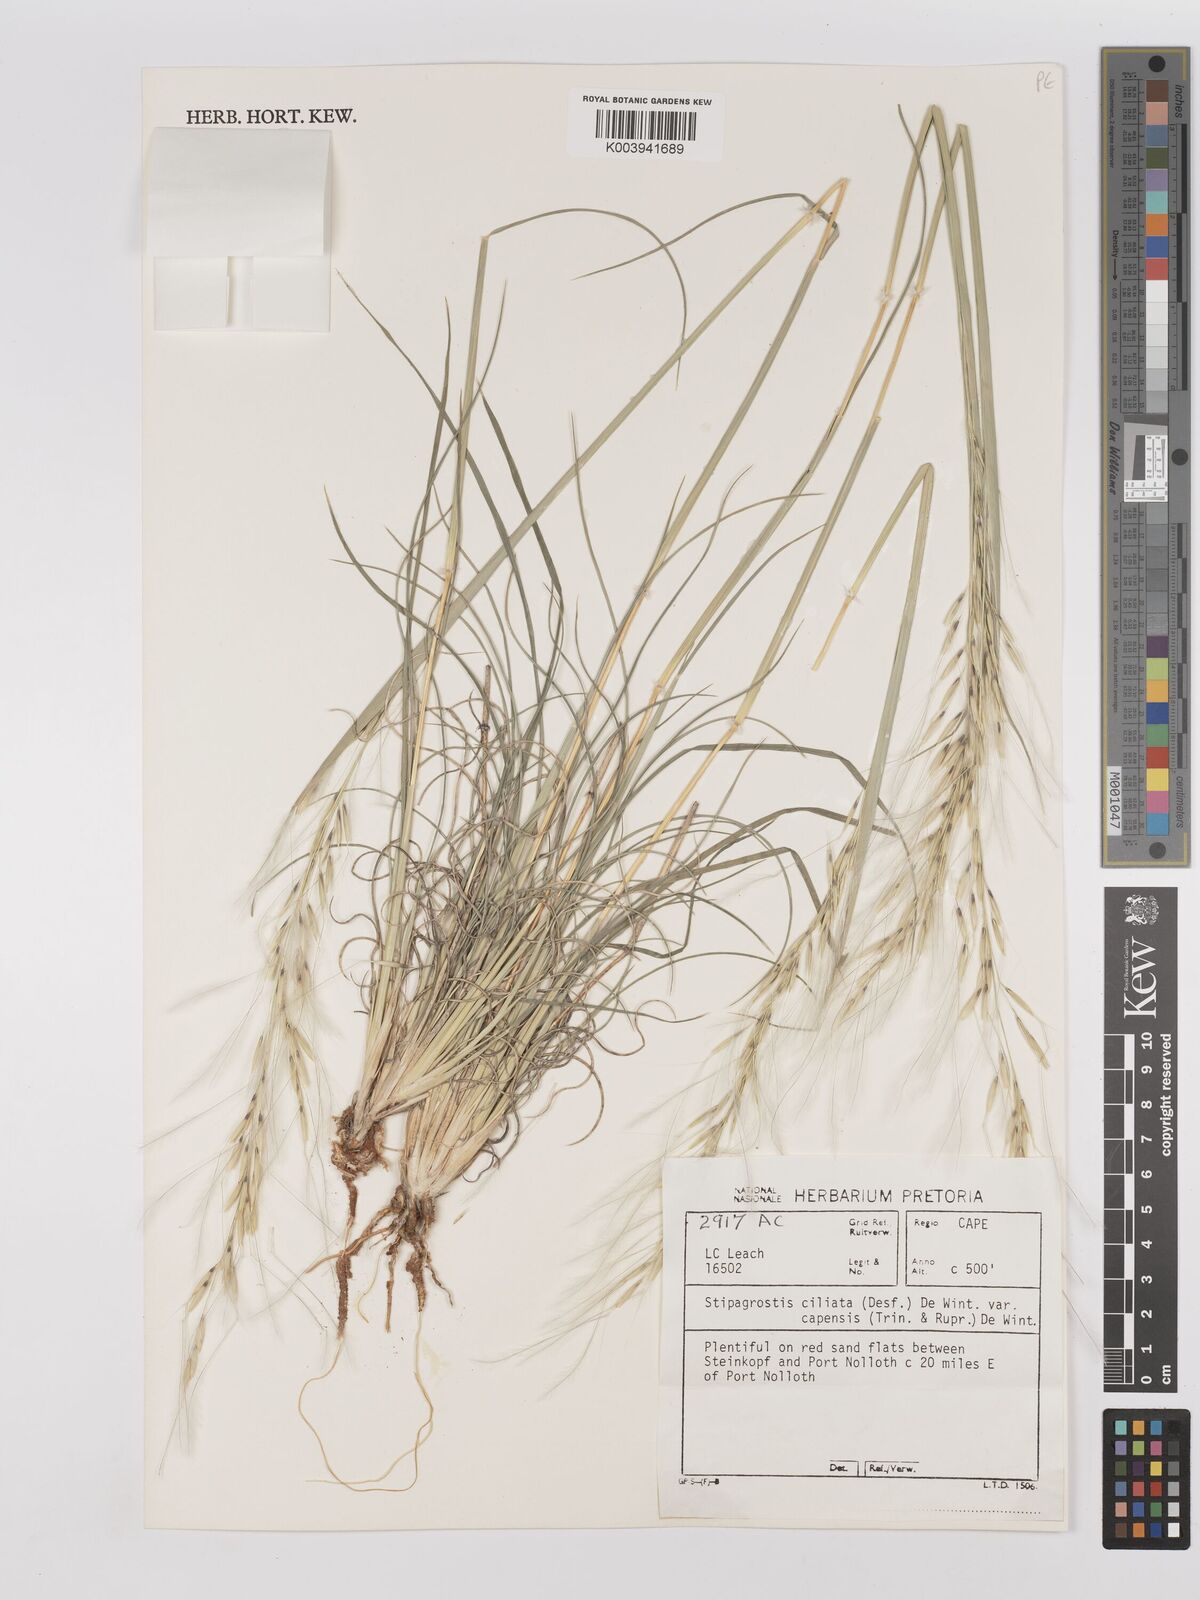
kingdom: Plantae
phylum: Tracheophyta
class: Liliopsida
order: Poales
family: Poaceae
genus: Stipagrostis
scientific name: Stipagrostis ciliata
